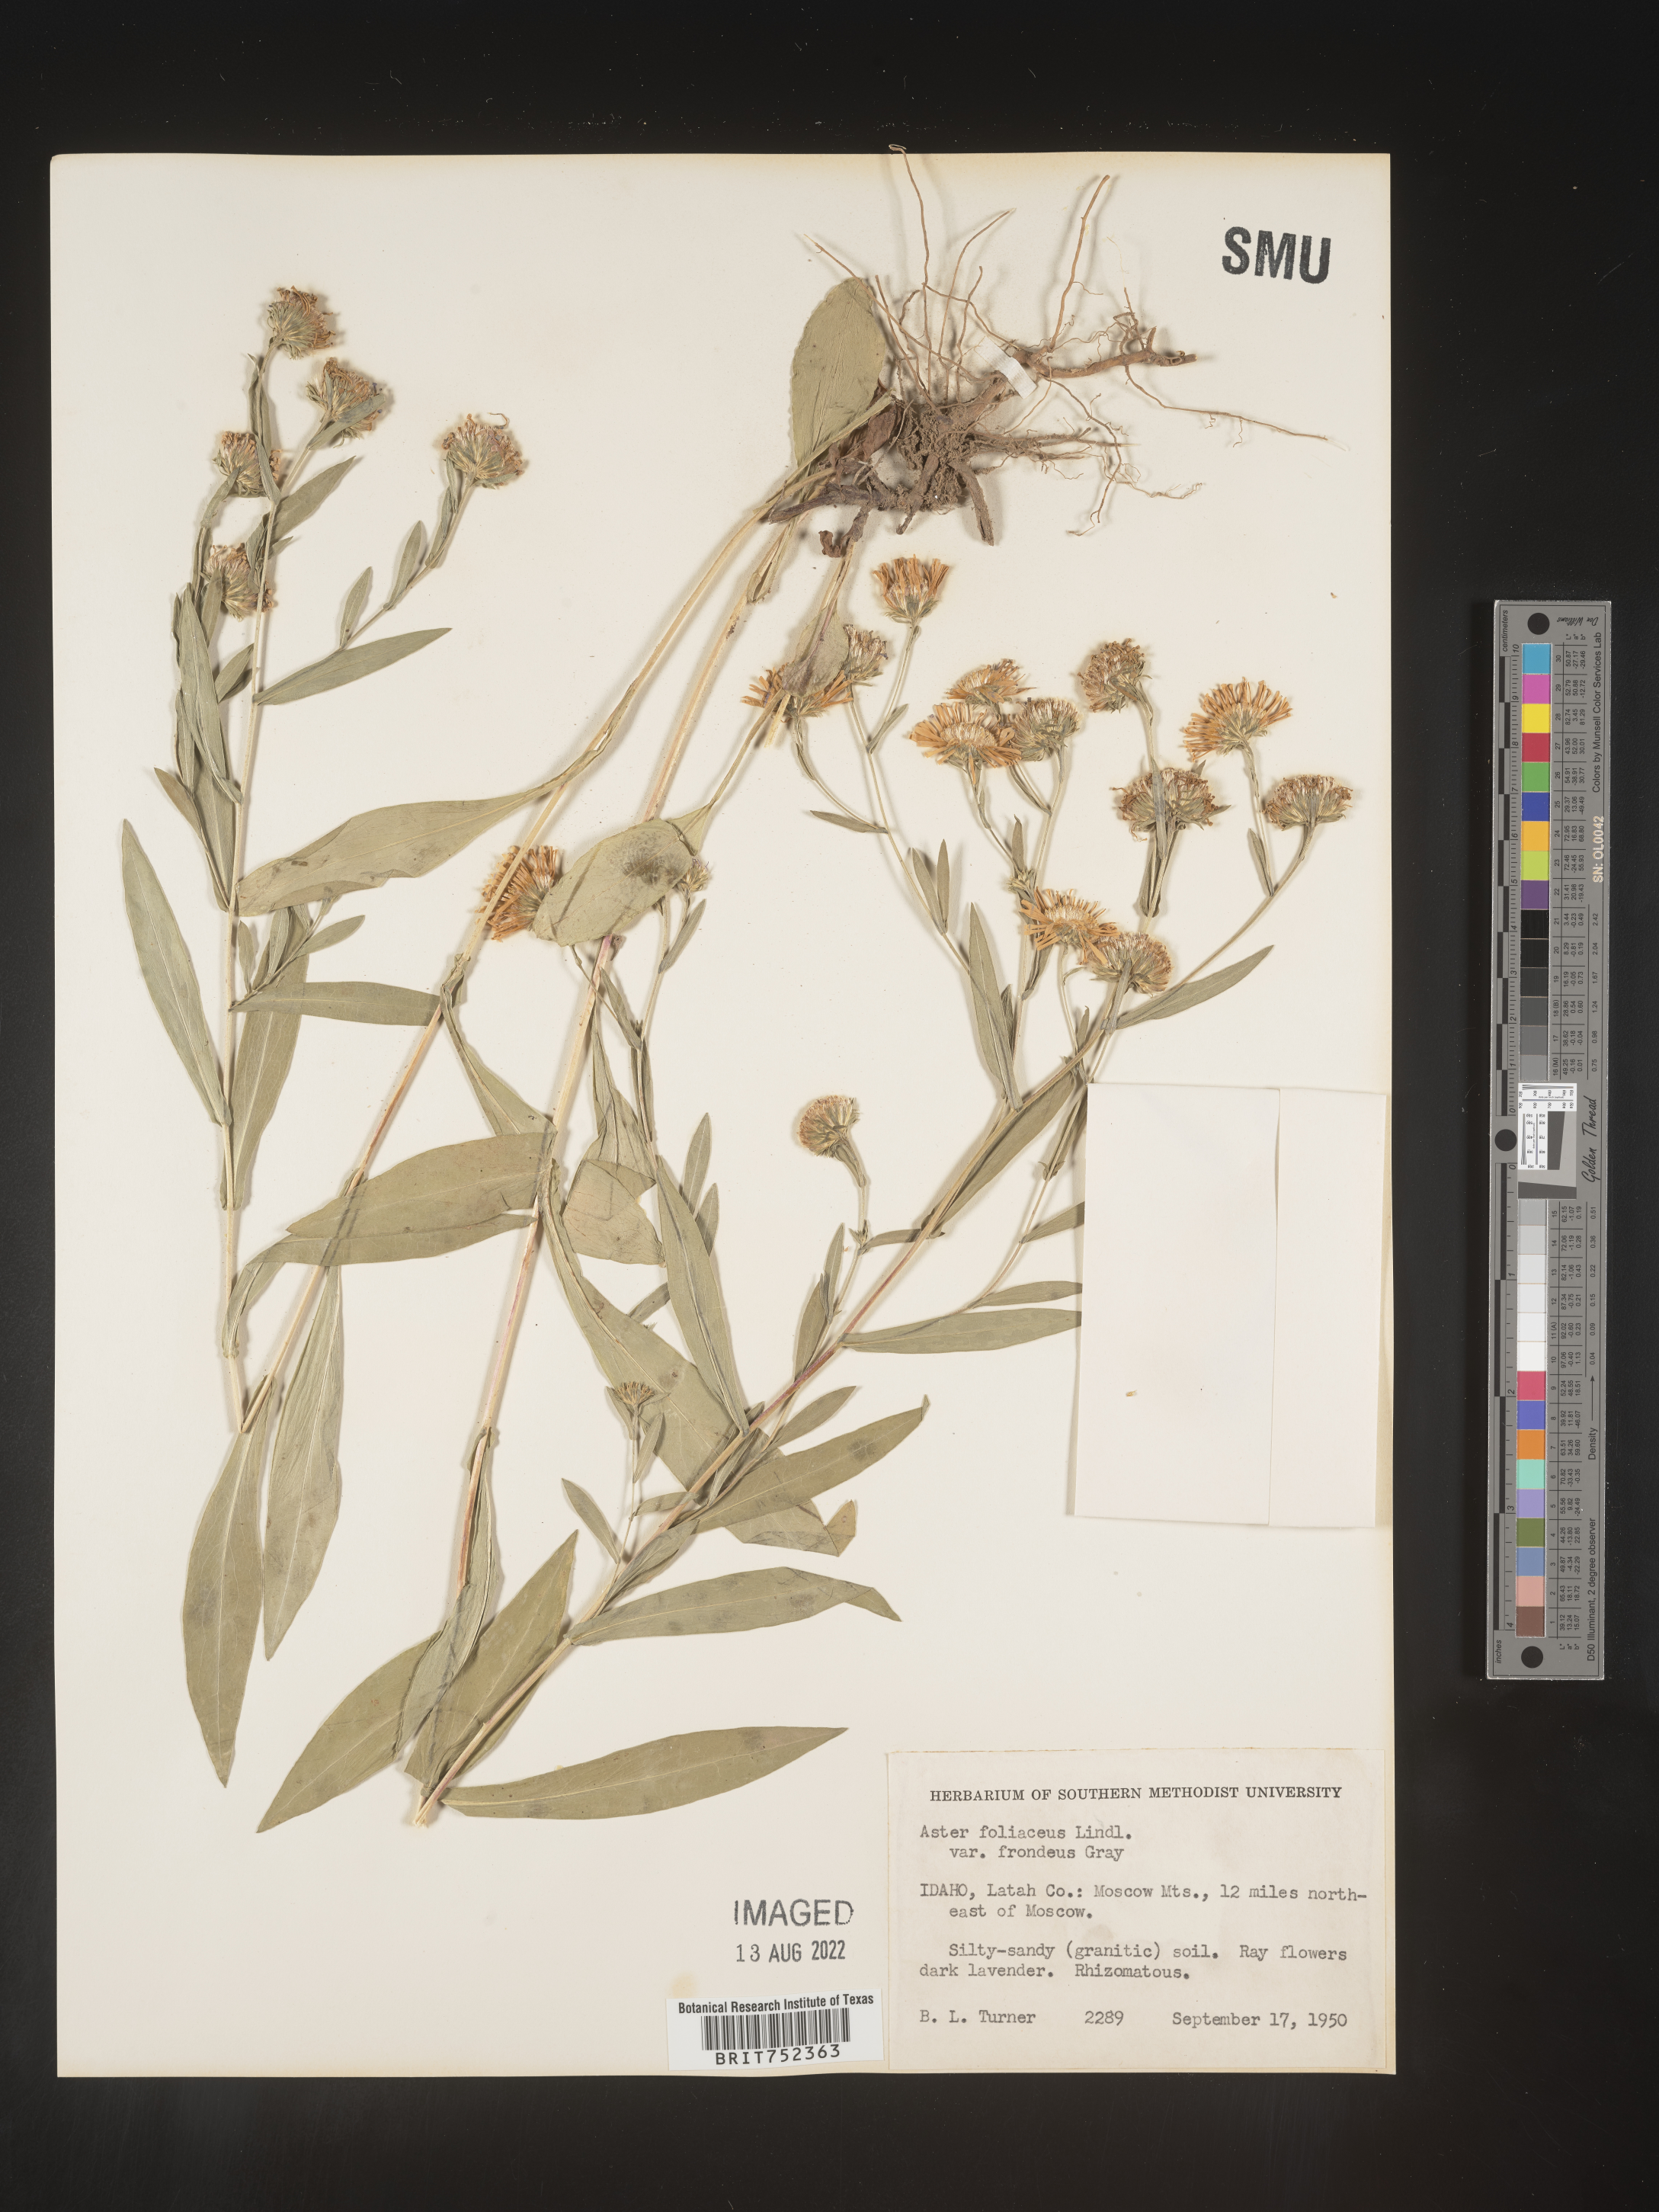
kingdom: Plantae
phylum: Tracheophyta
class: Magnoliopsida
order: Asterales
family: Asteraceae
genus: Symphyotrichum
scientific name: Symphyotrichum foliaceum
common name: Leafy aster
